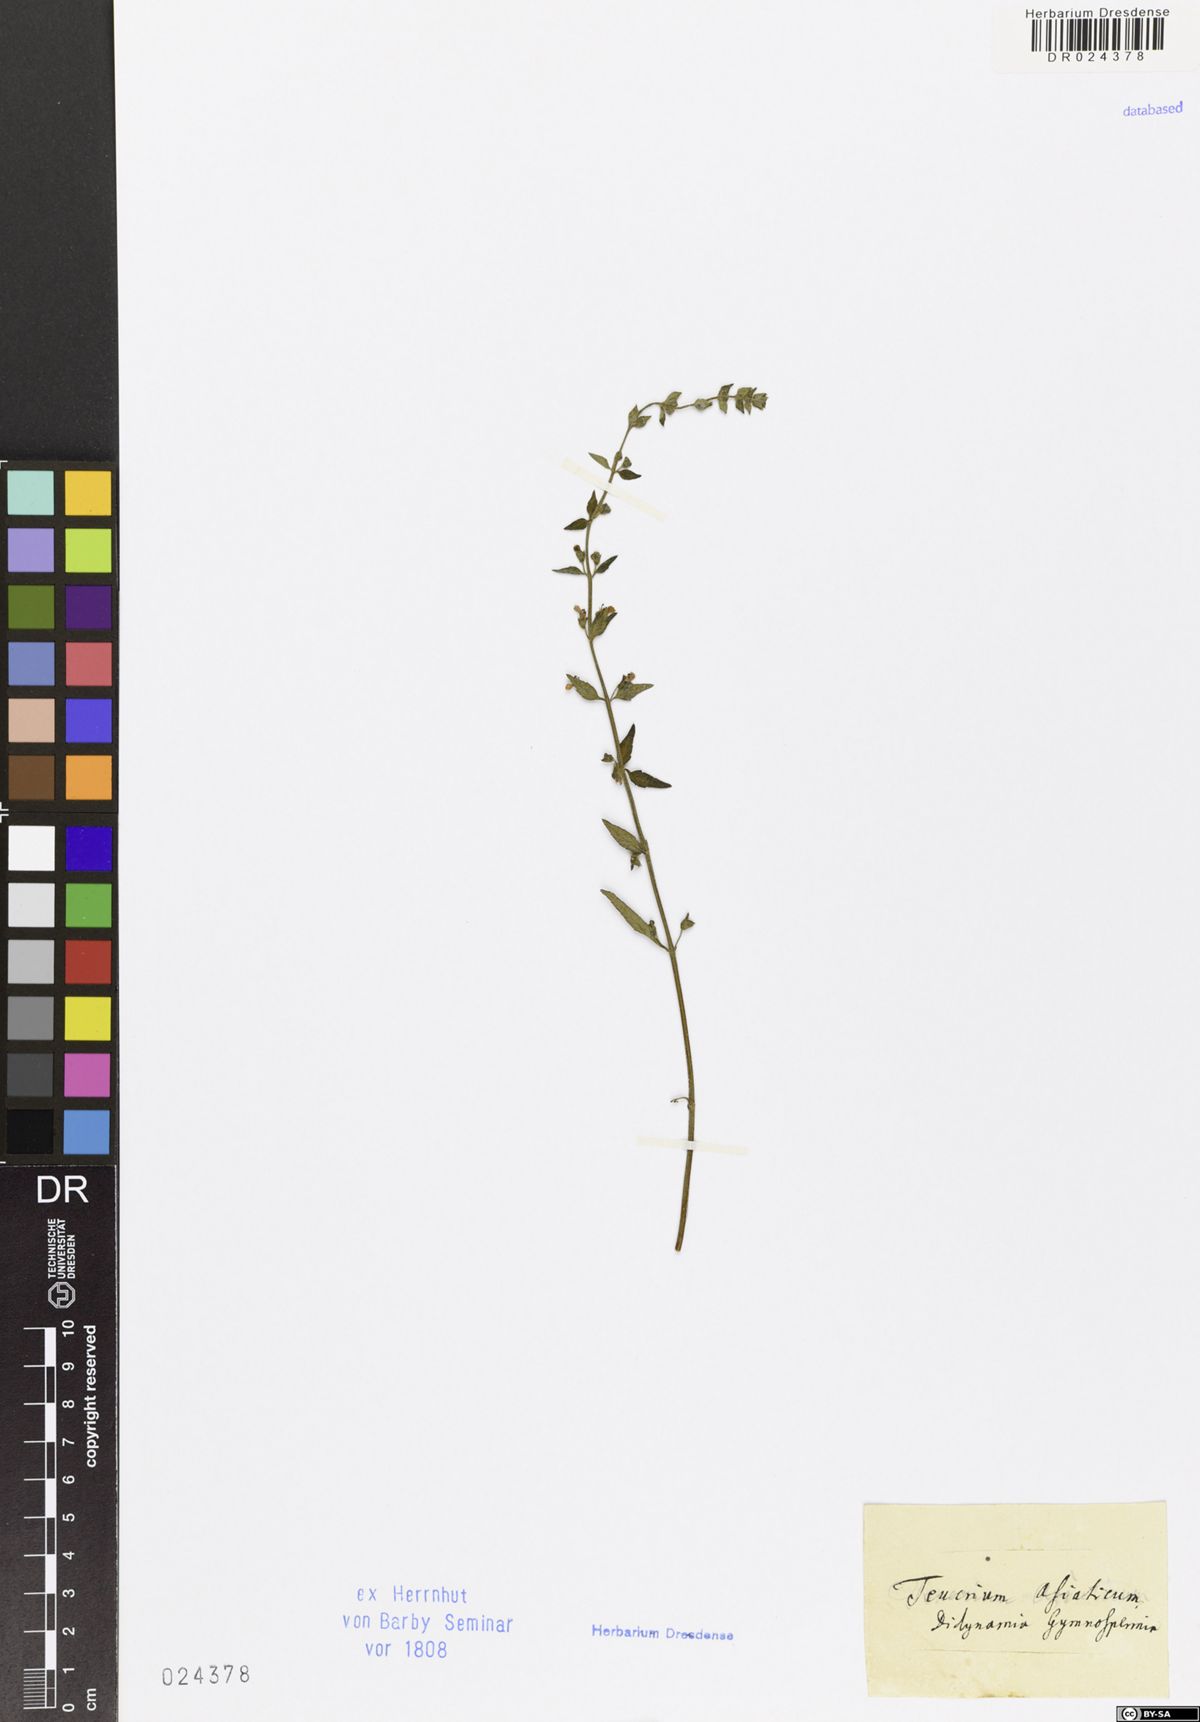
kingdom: Plantae
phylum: Tracheophyta
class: Magnoliopsida
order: Lamiales
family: Lamiaceae
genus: Teucrium
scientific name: Teucrium asiaticum
